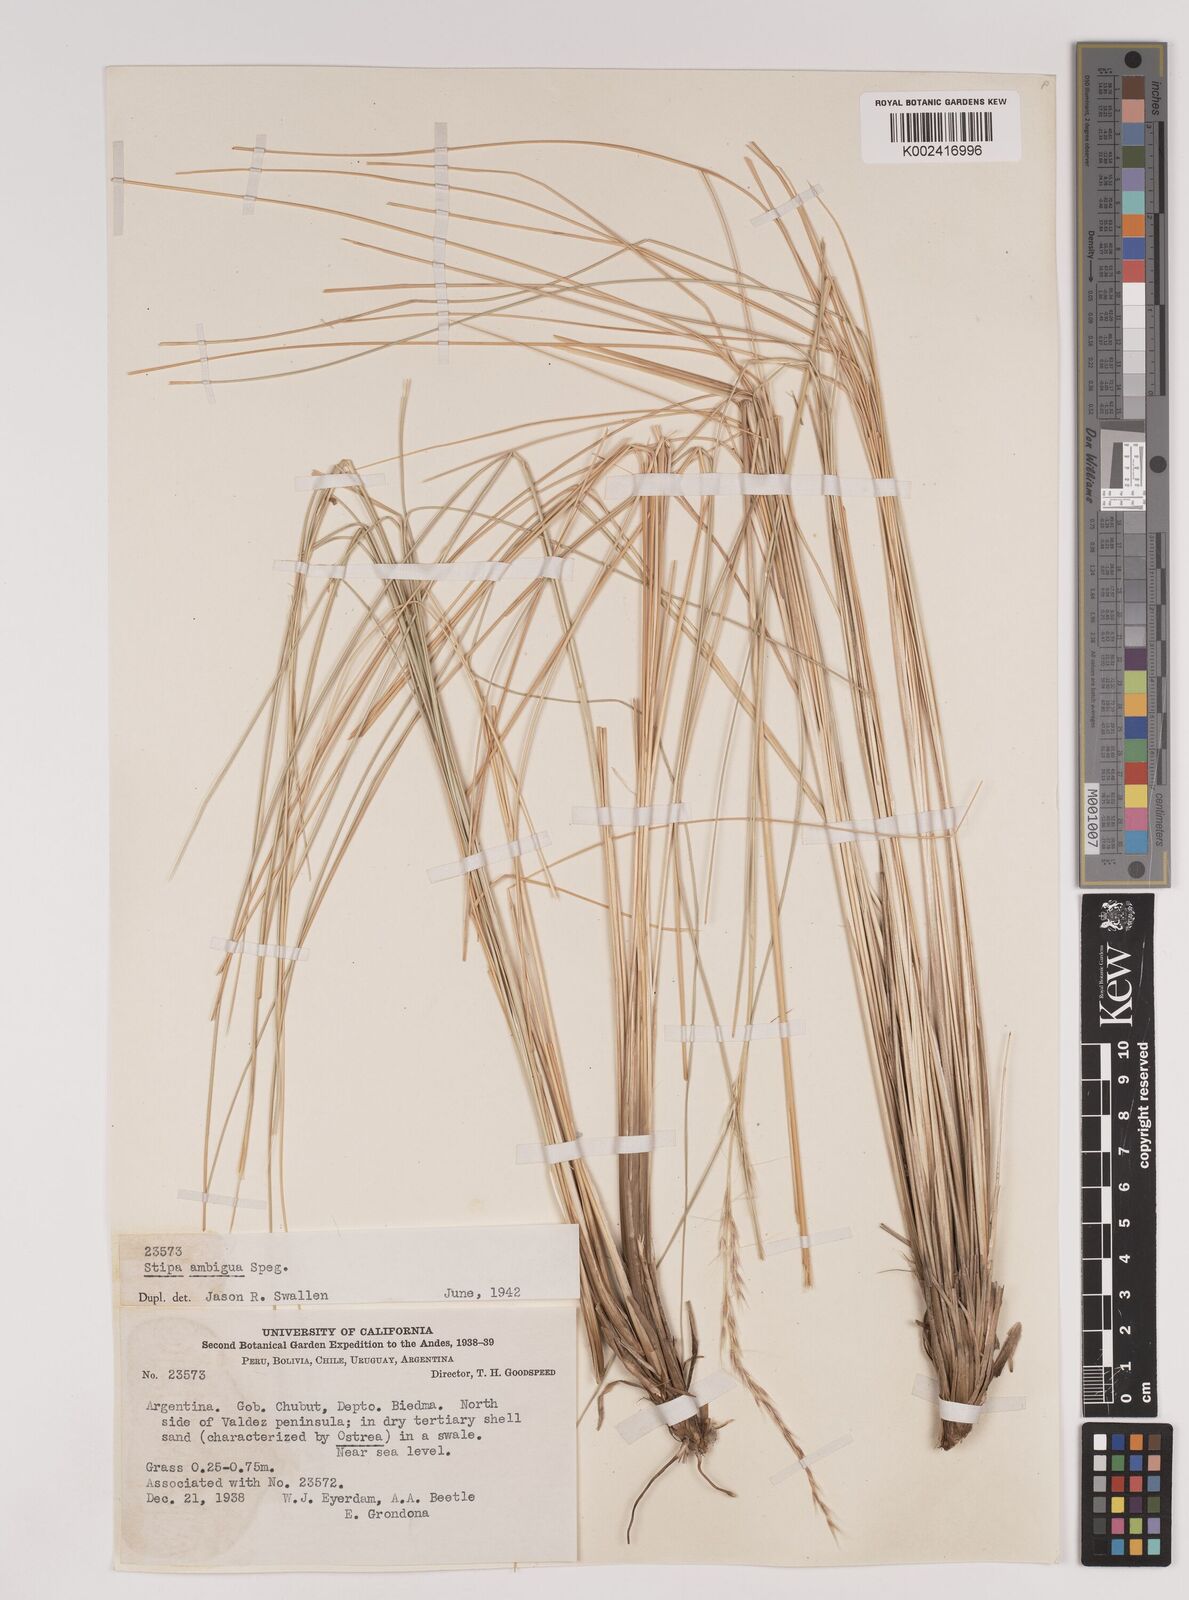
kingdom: Plantae
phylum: Tracheophyta
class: Liliopsida
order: Poales
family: Poaceae
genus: Amelichloa
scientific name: Amelichloa ambigua
